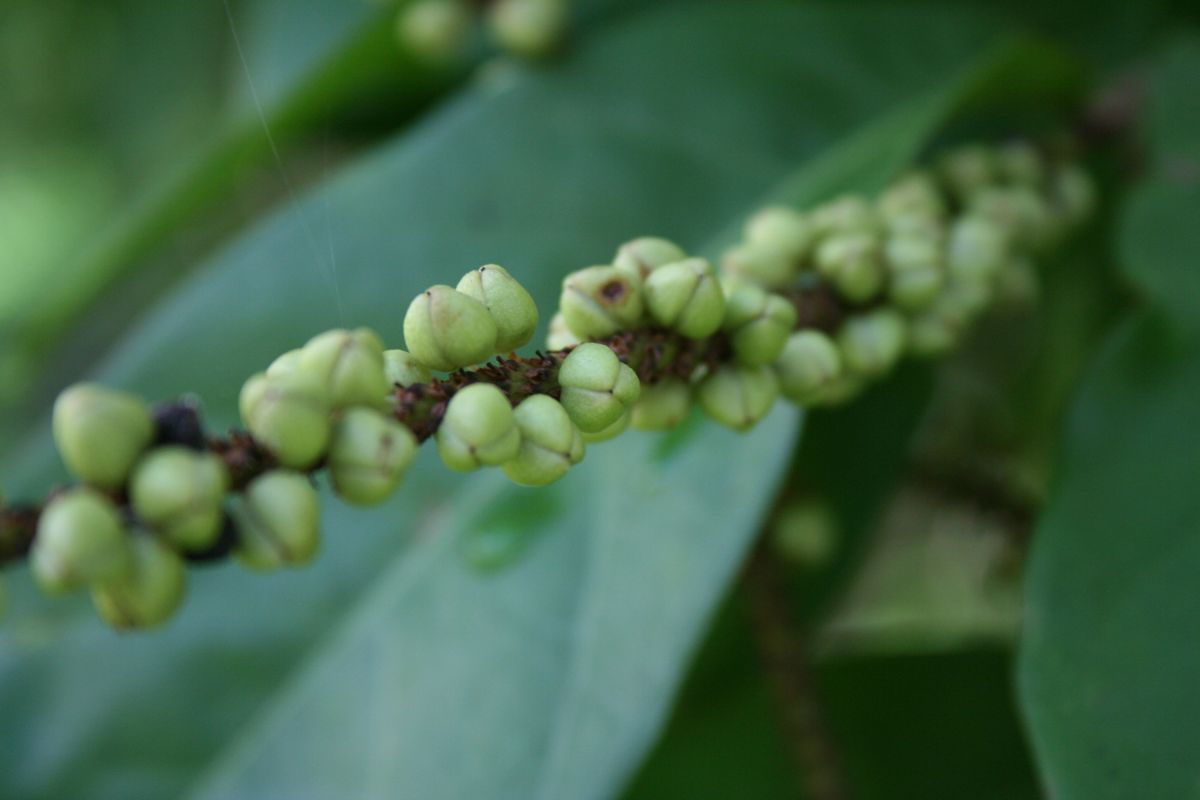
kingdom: Plantae
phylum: Tracheophyta
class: Magnoliopsida
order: Caryophyllales
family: Polygonaceae
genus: Coccoloba
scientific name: Coccoloba floribunda
